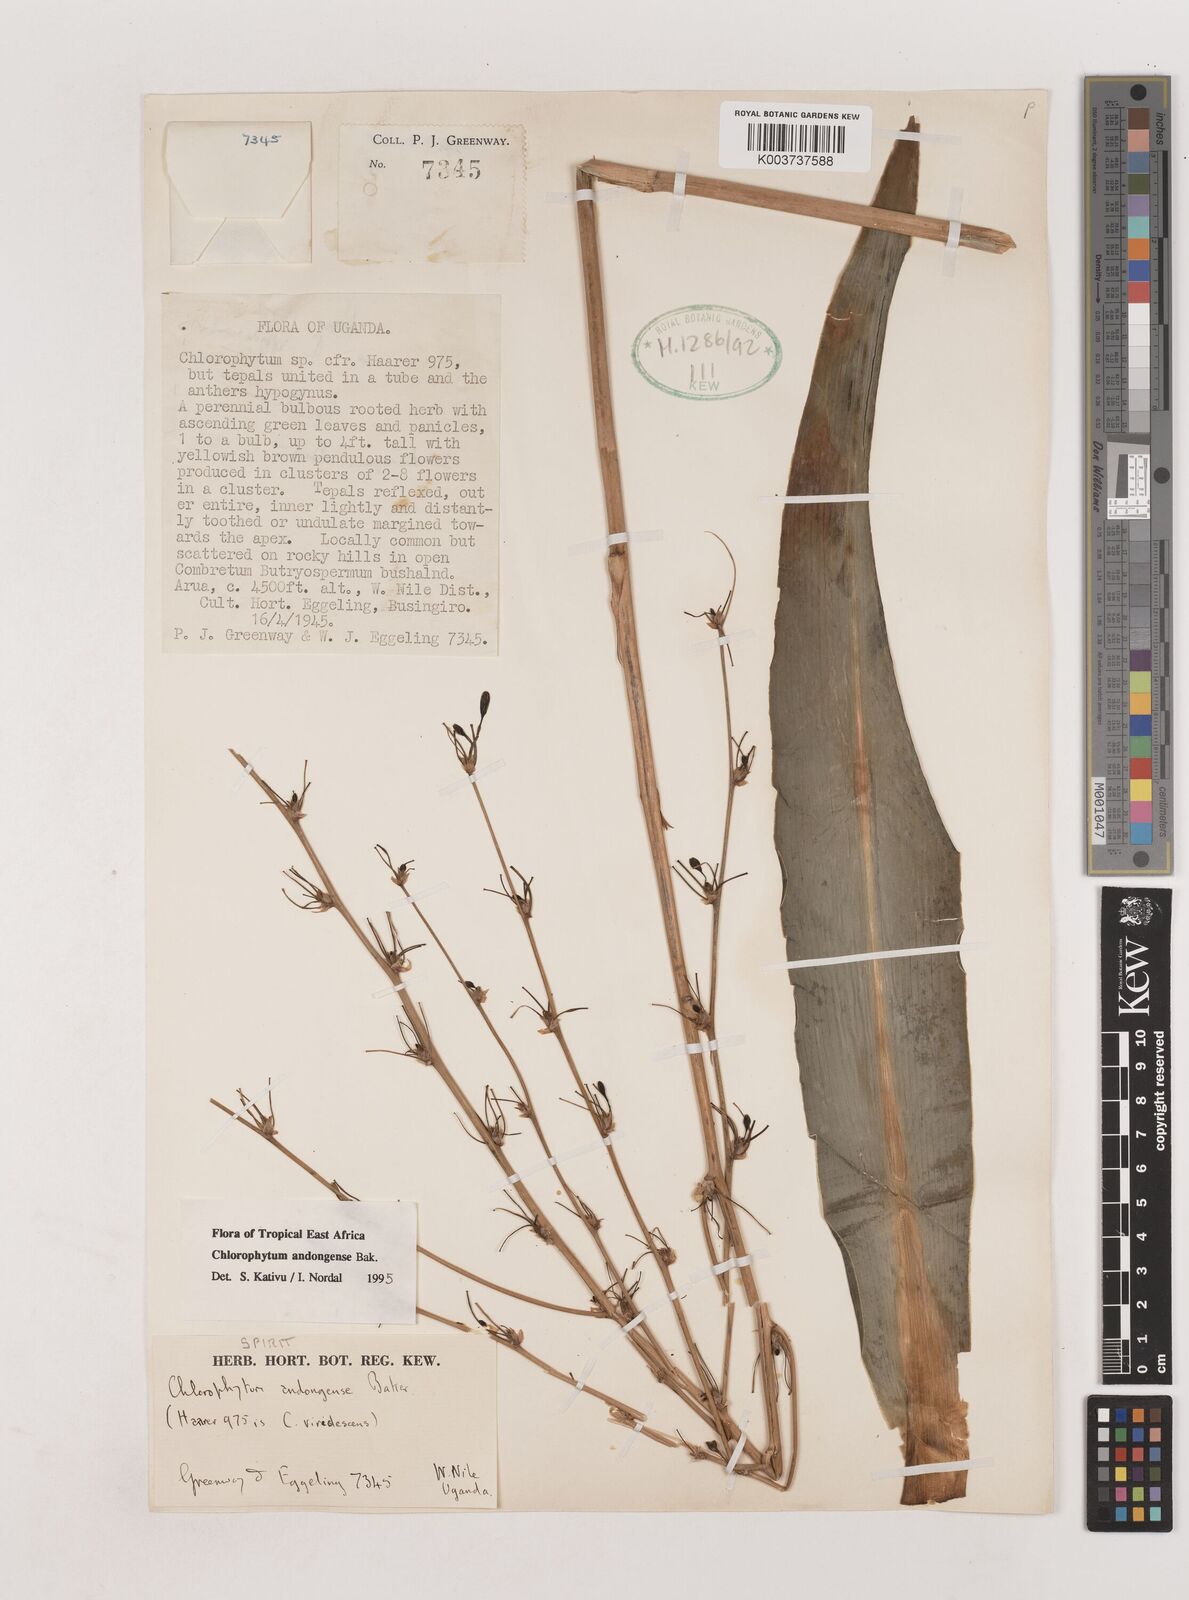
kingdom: Plantae
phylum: Tracheophyta
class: Liliopsida
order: Asparagales
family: Asparagaceae
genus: Chlorophytum
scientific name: Chlorophytum andongense
